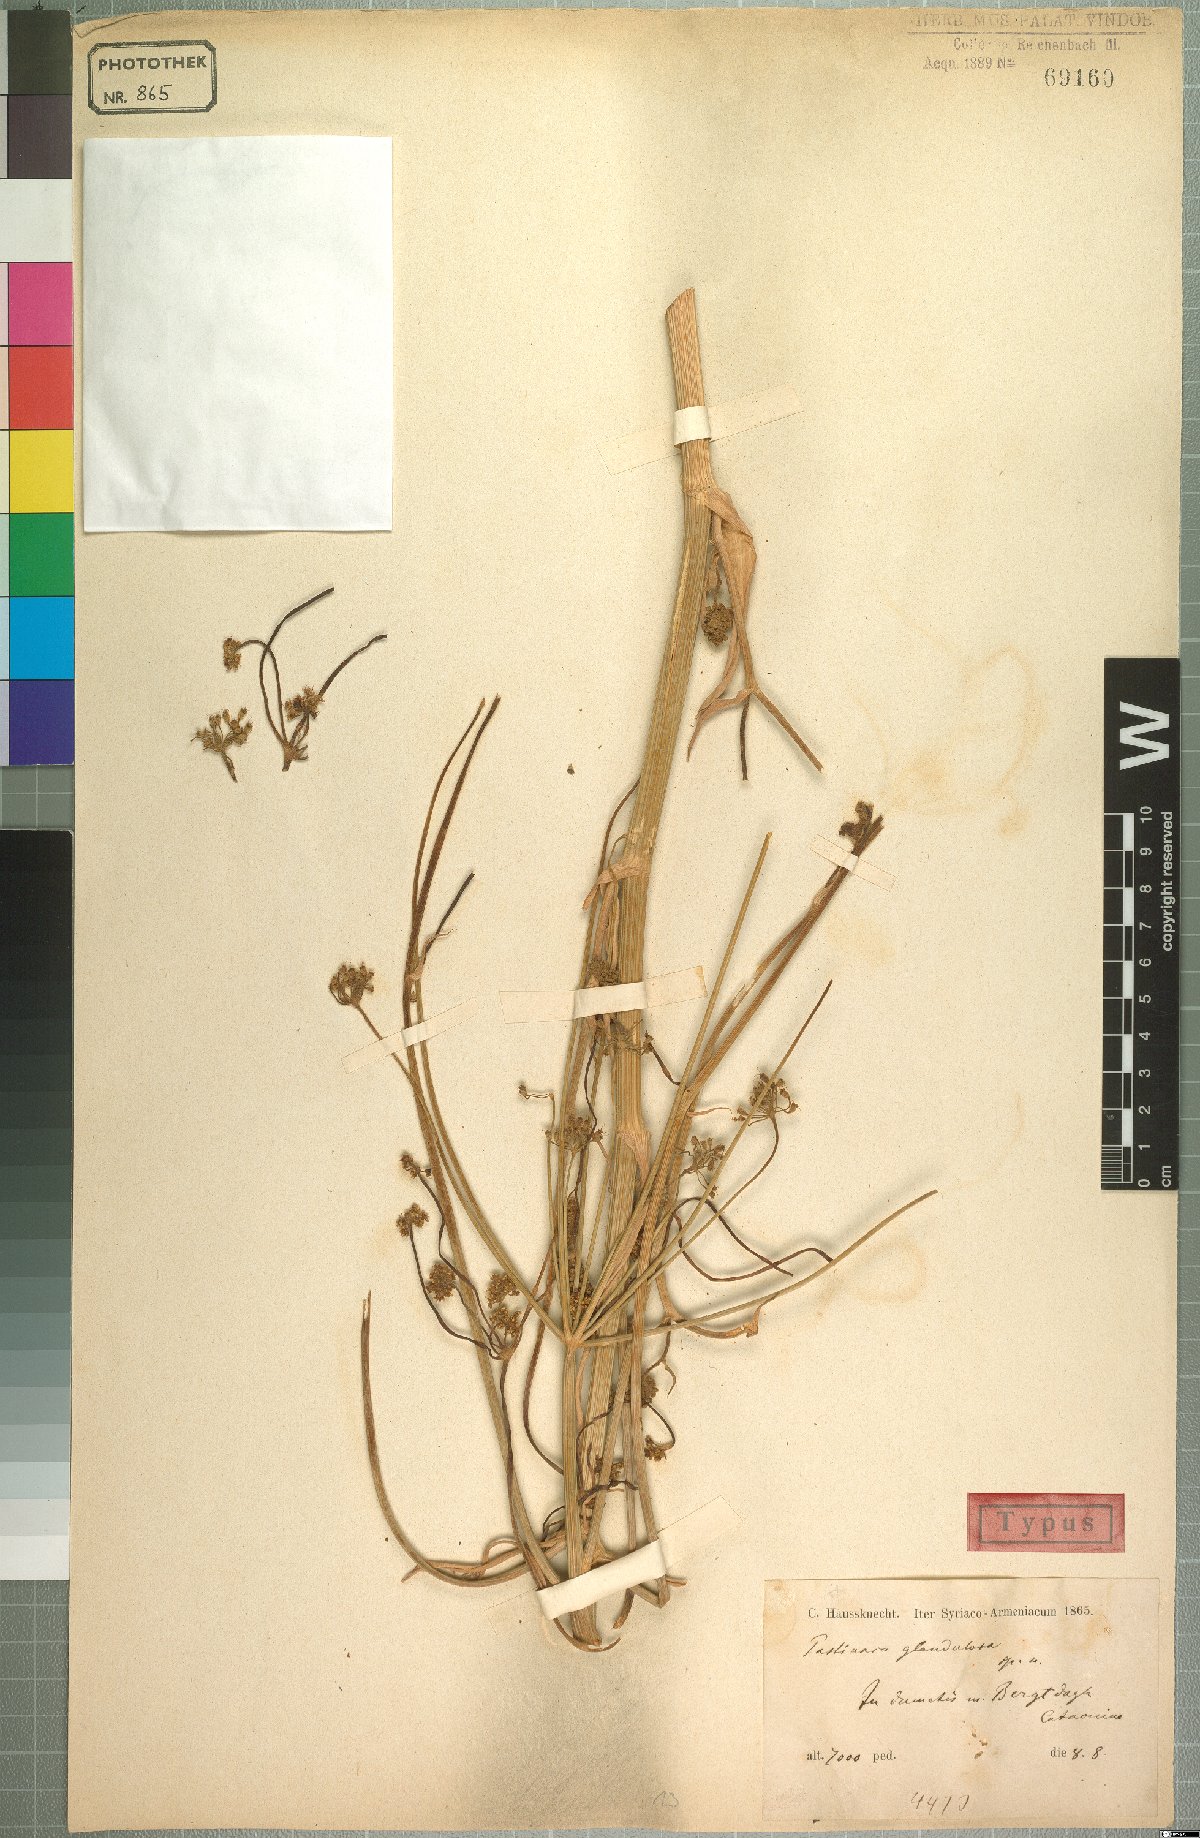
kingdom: Plantae
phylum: Tracheophyta
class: Magnoliopsida
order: Apiales
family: Apiaceae
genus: Pastinaca
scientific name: Pastinaca glandulosa
